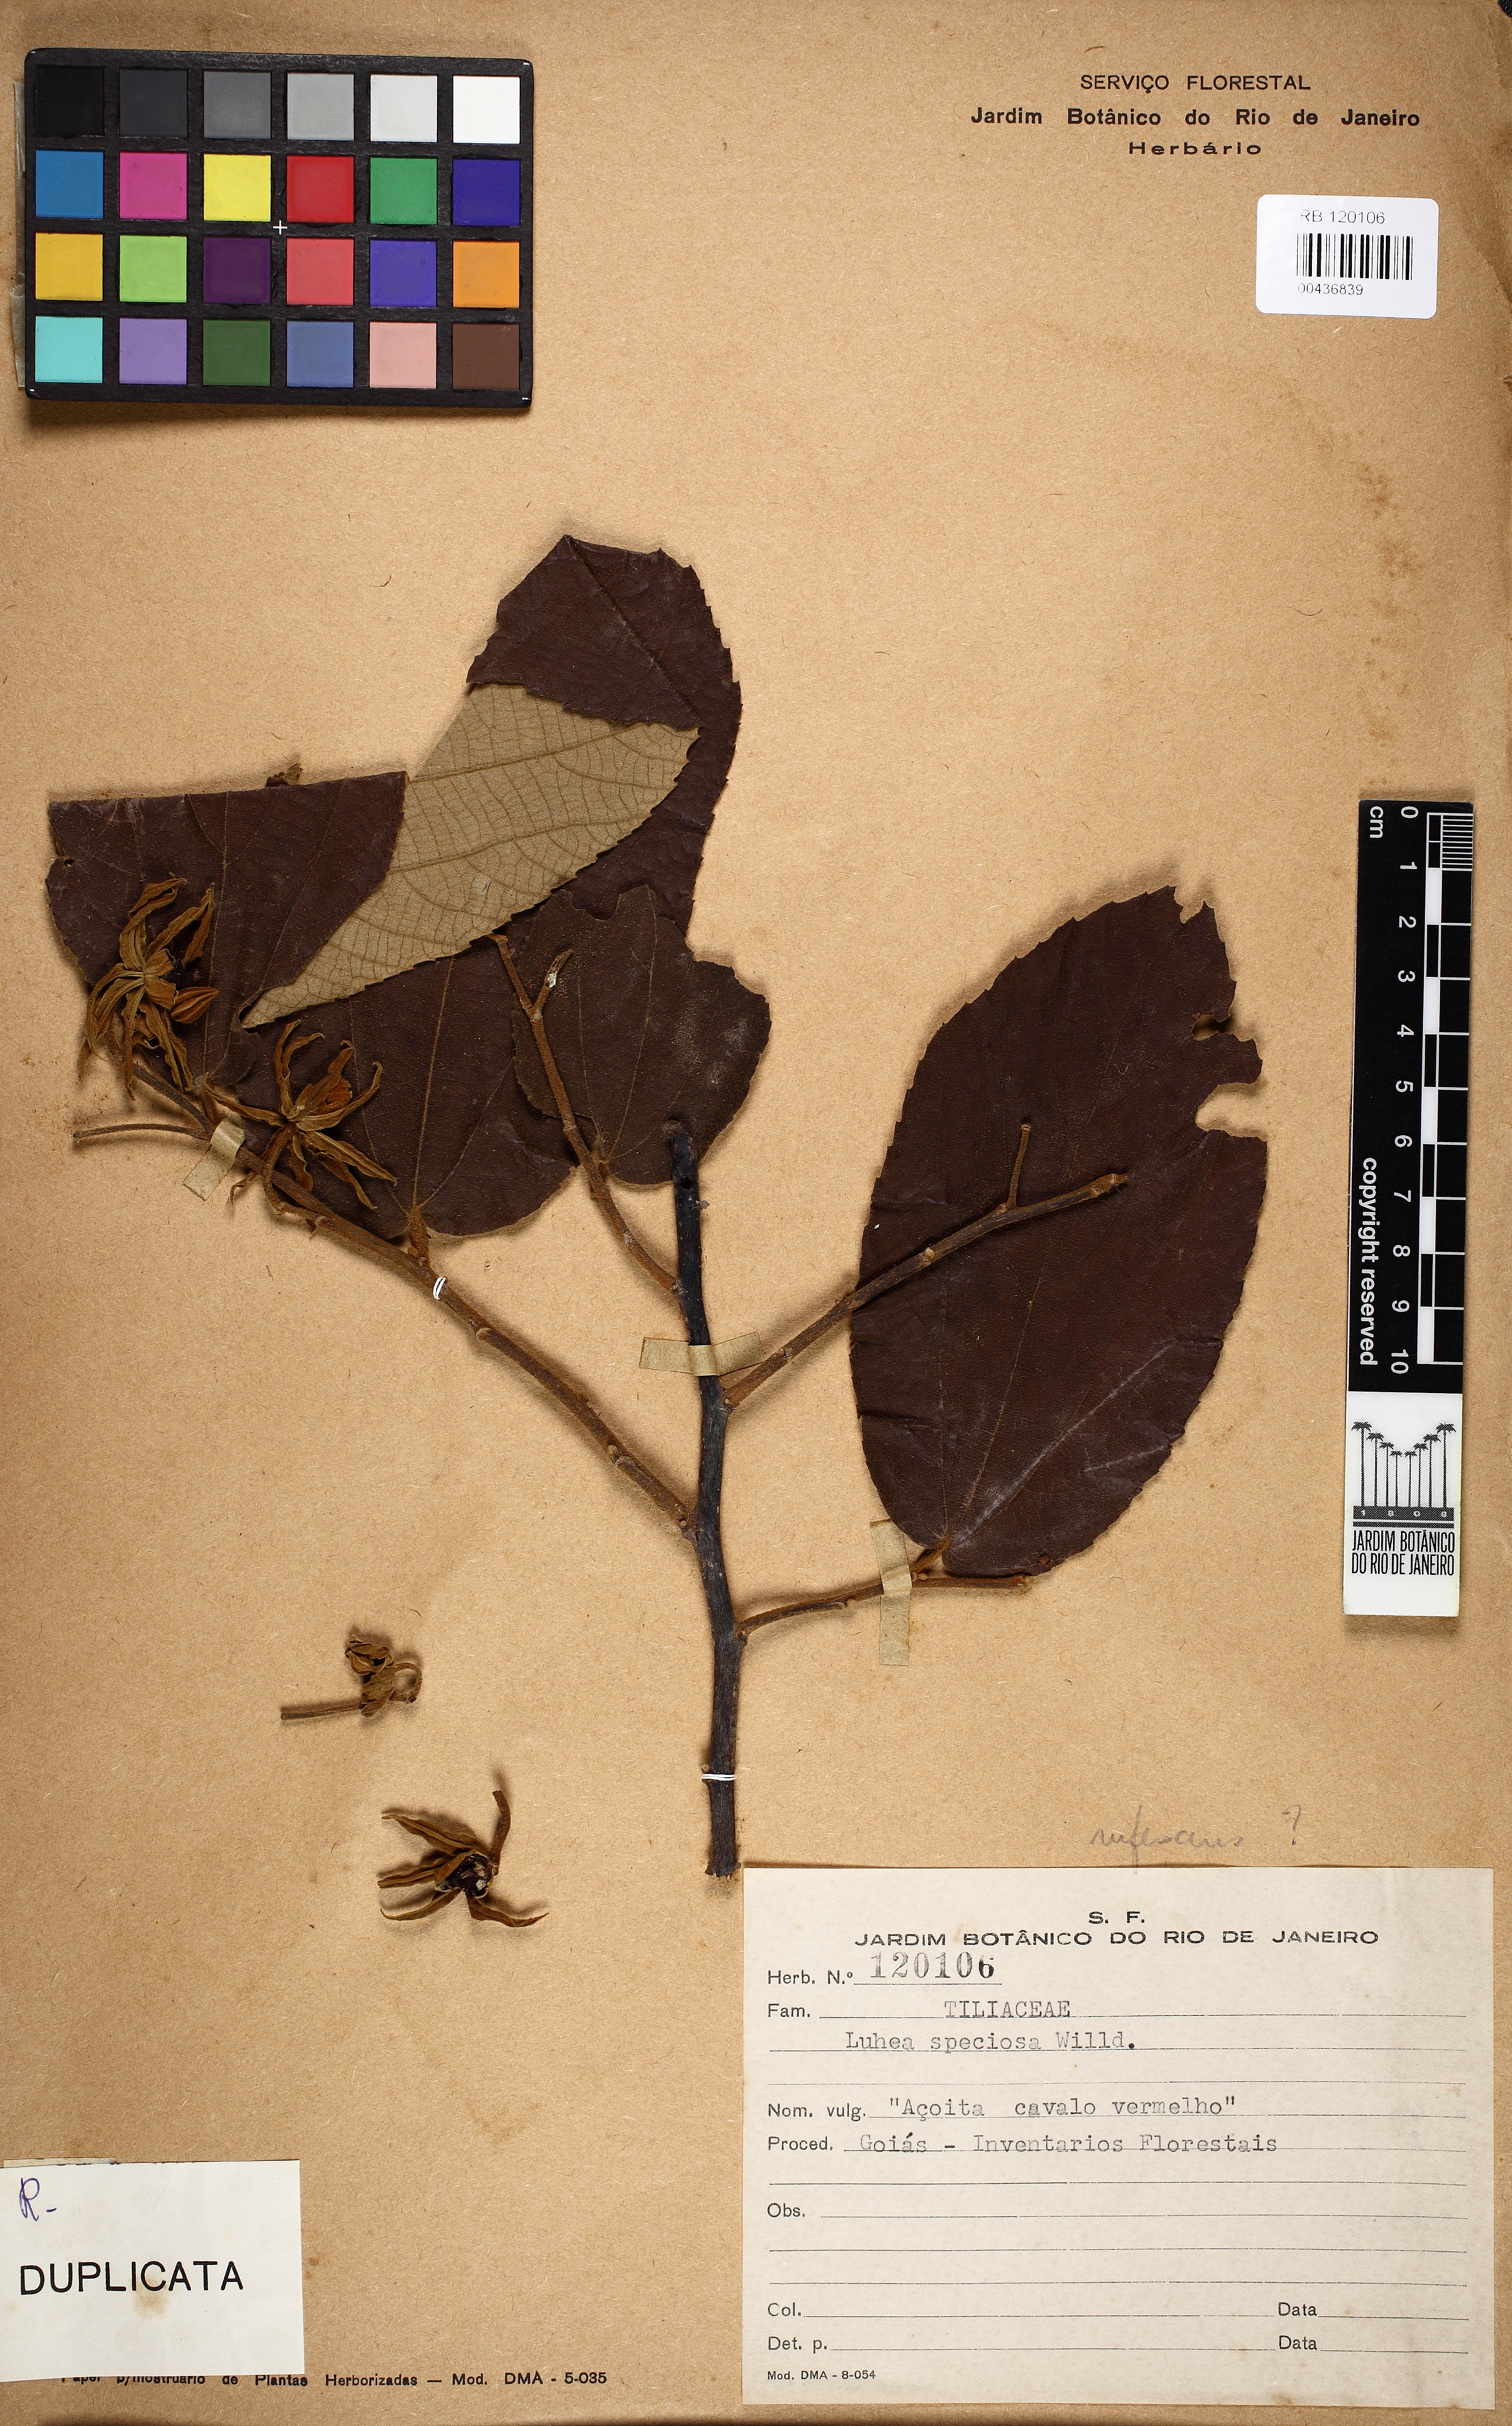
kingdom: Plantae
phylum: Tracheophyta
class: Magnoliopsida
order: Malvales
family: Malvaceae
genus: Luehea
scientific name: Luehea speciosa
